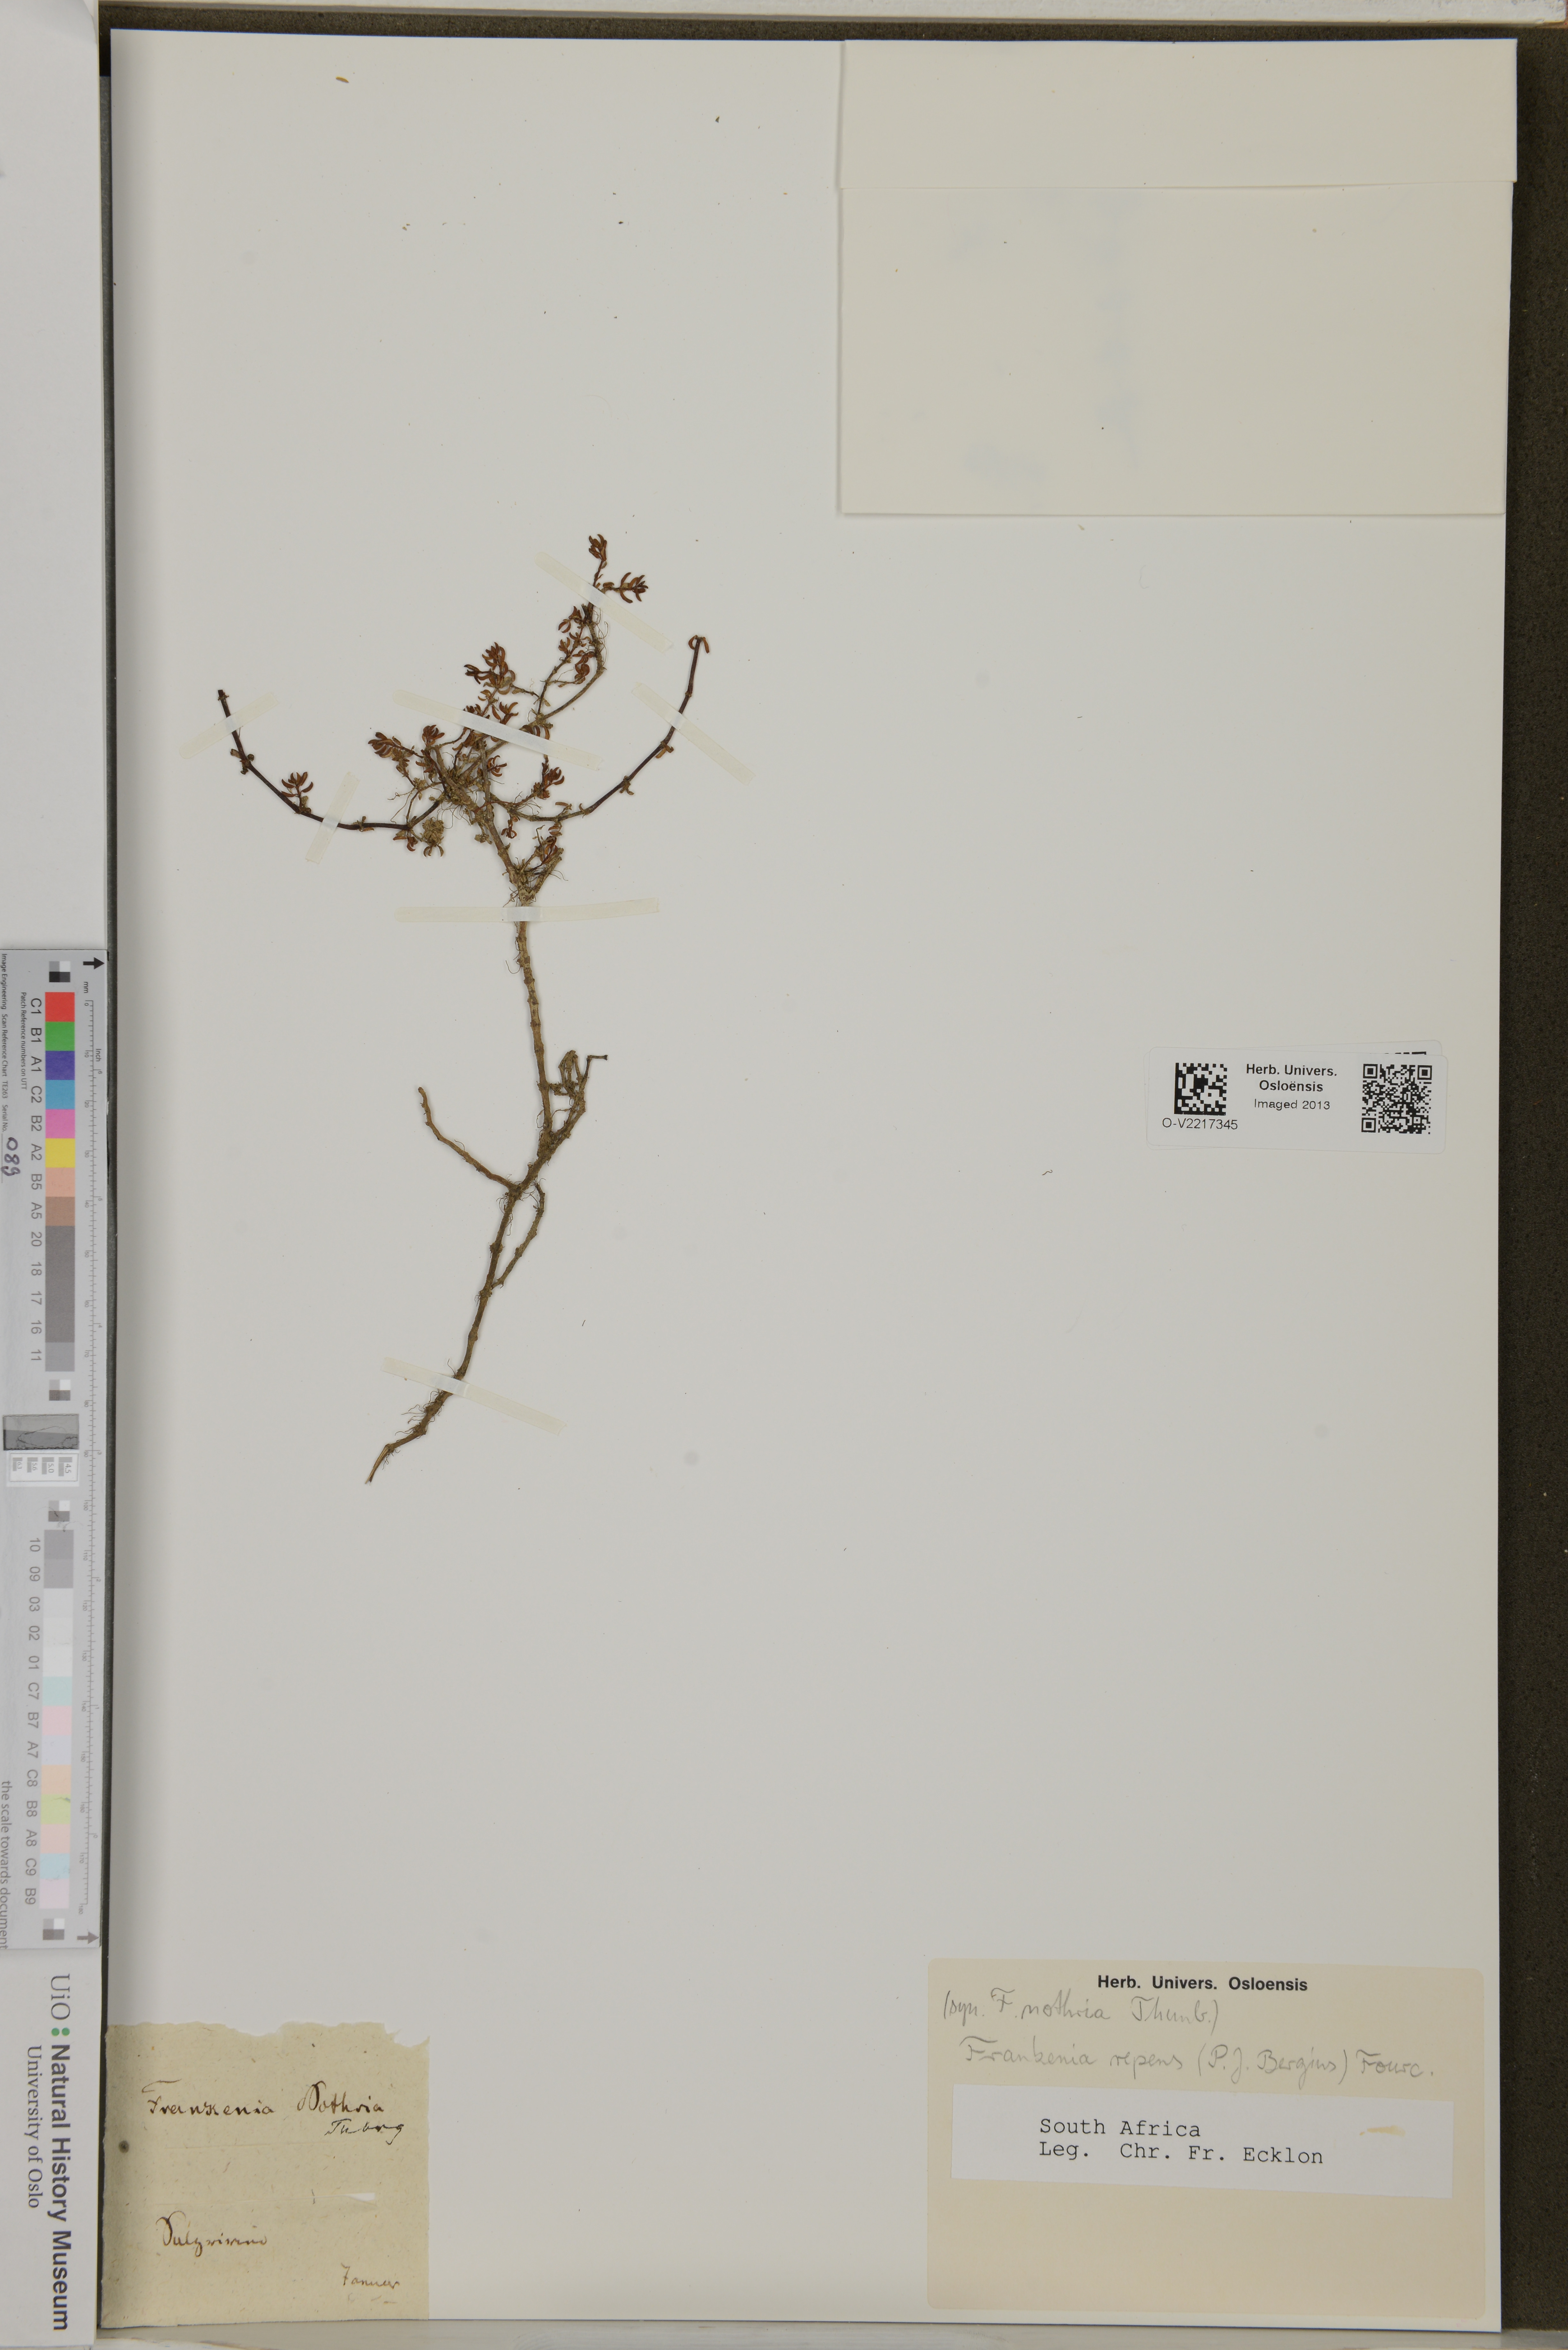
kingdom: Plantae
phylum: Tracheophyta
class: Magnoliopsida
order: Caryophyllales
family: Frankeniaceae
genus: Frankenia
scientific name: Frankenia repens
